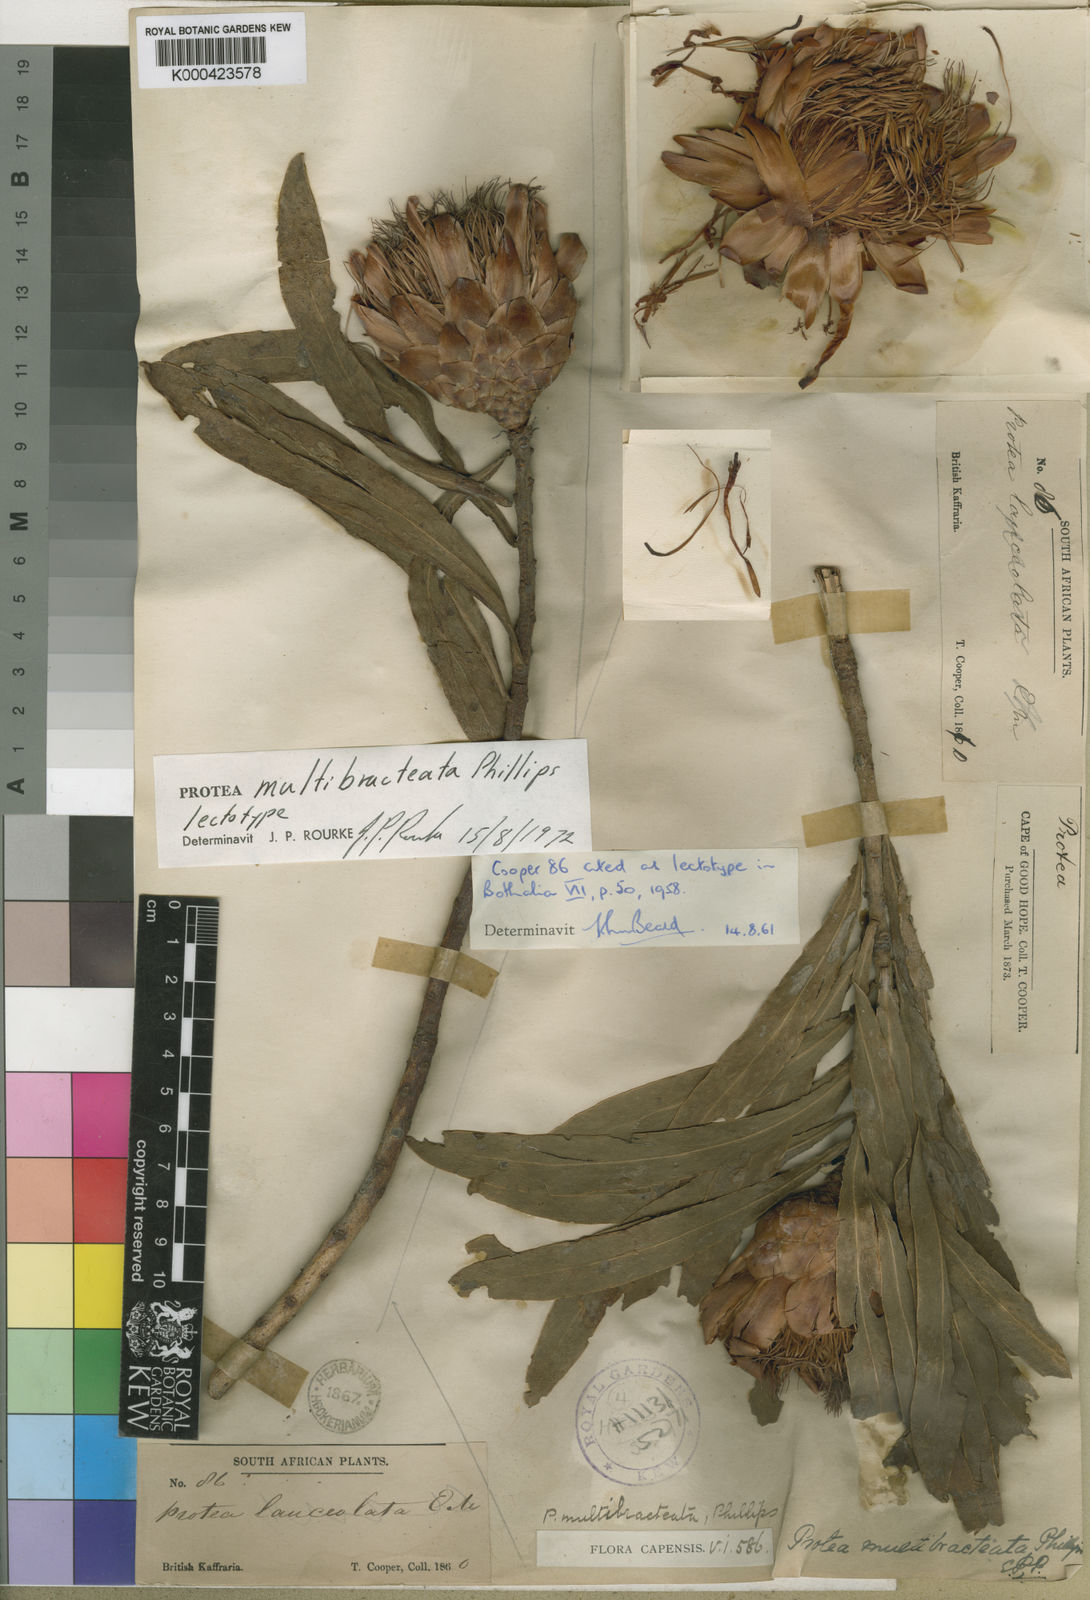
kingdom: Plantae
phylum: Tracheophyta
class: Magnoliopsida
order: Proteales
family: Proteaceae
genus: Protea
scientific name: Protea caffra
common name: Common sugarbush
